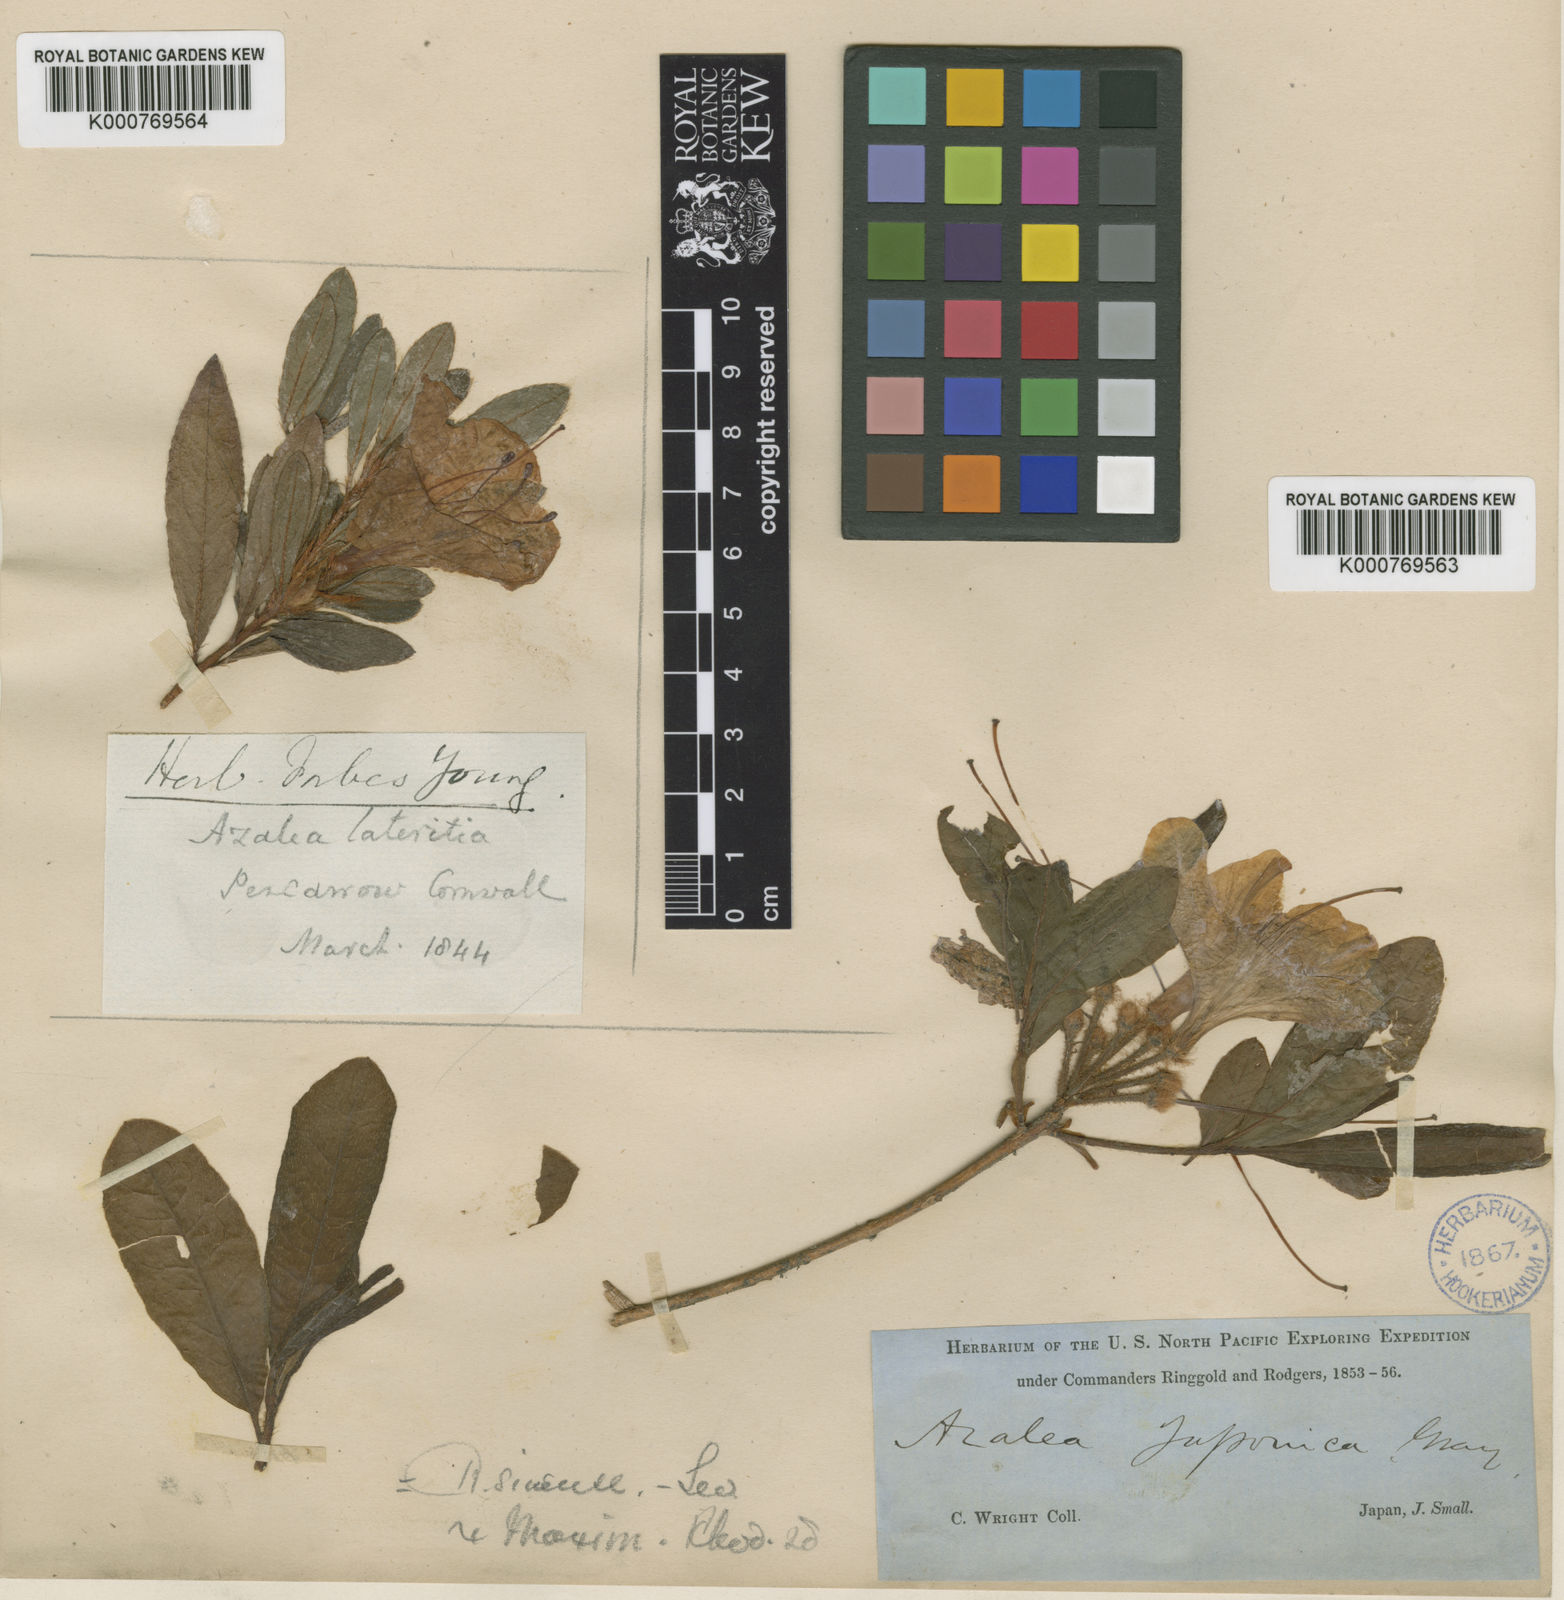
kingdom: Plantae
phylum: Tracheophyta
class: Magnoliopsida
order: Ericales
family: Ericaceae
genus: Rhododendron
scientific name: Rhododendron japonicum
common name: Japanese azalea
